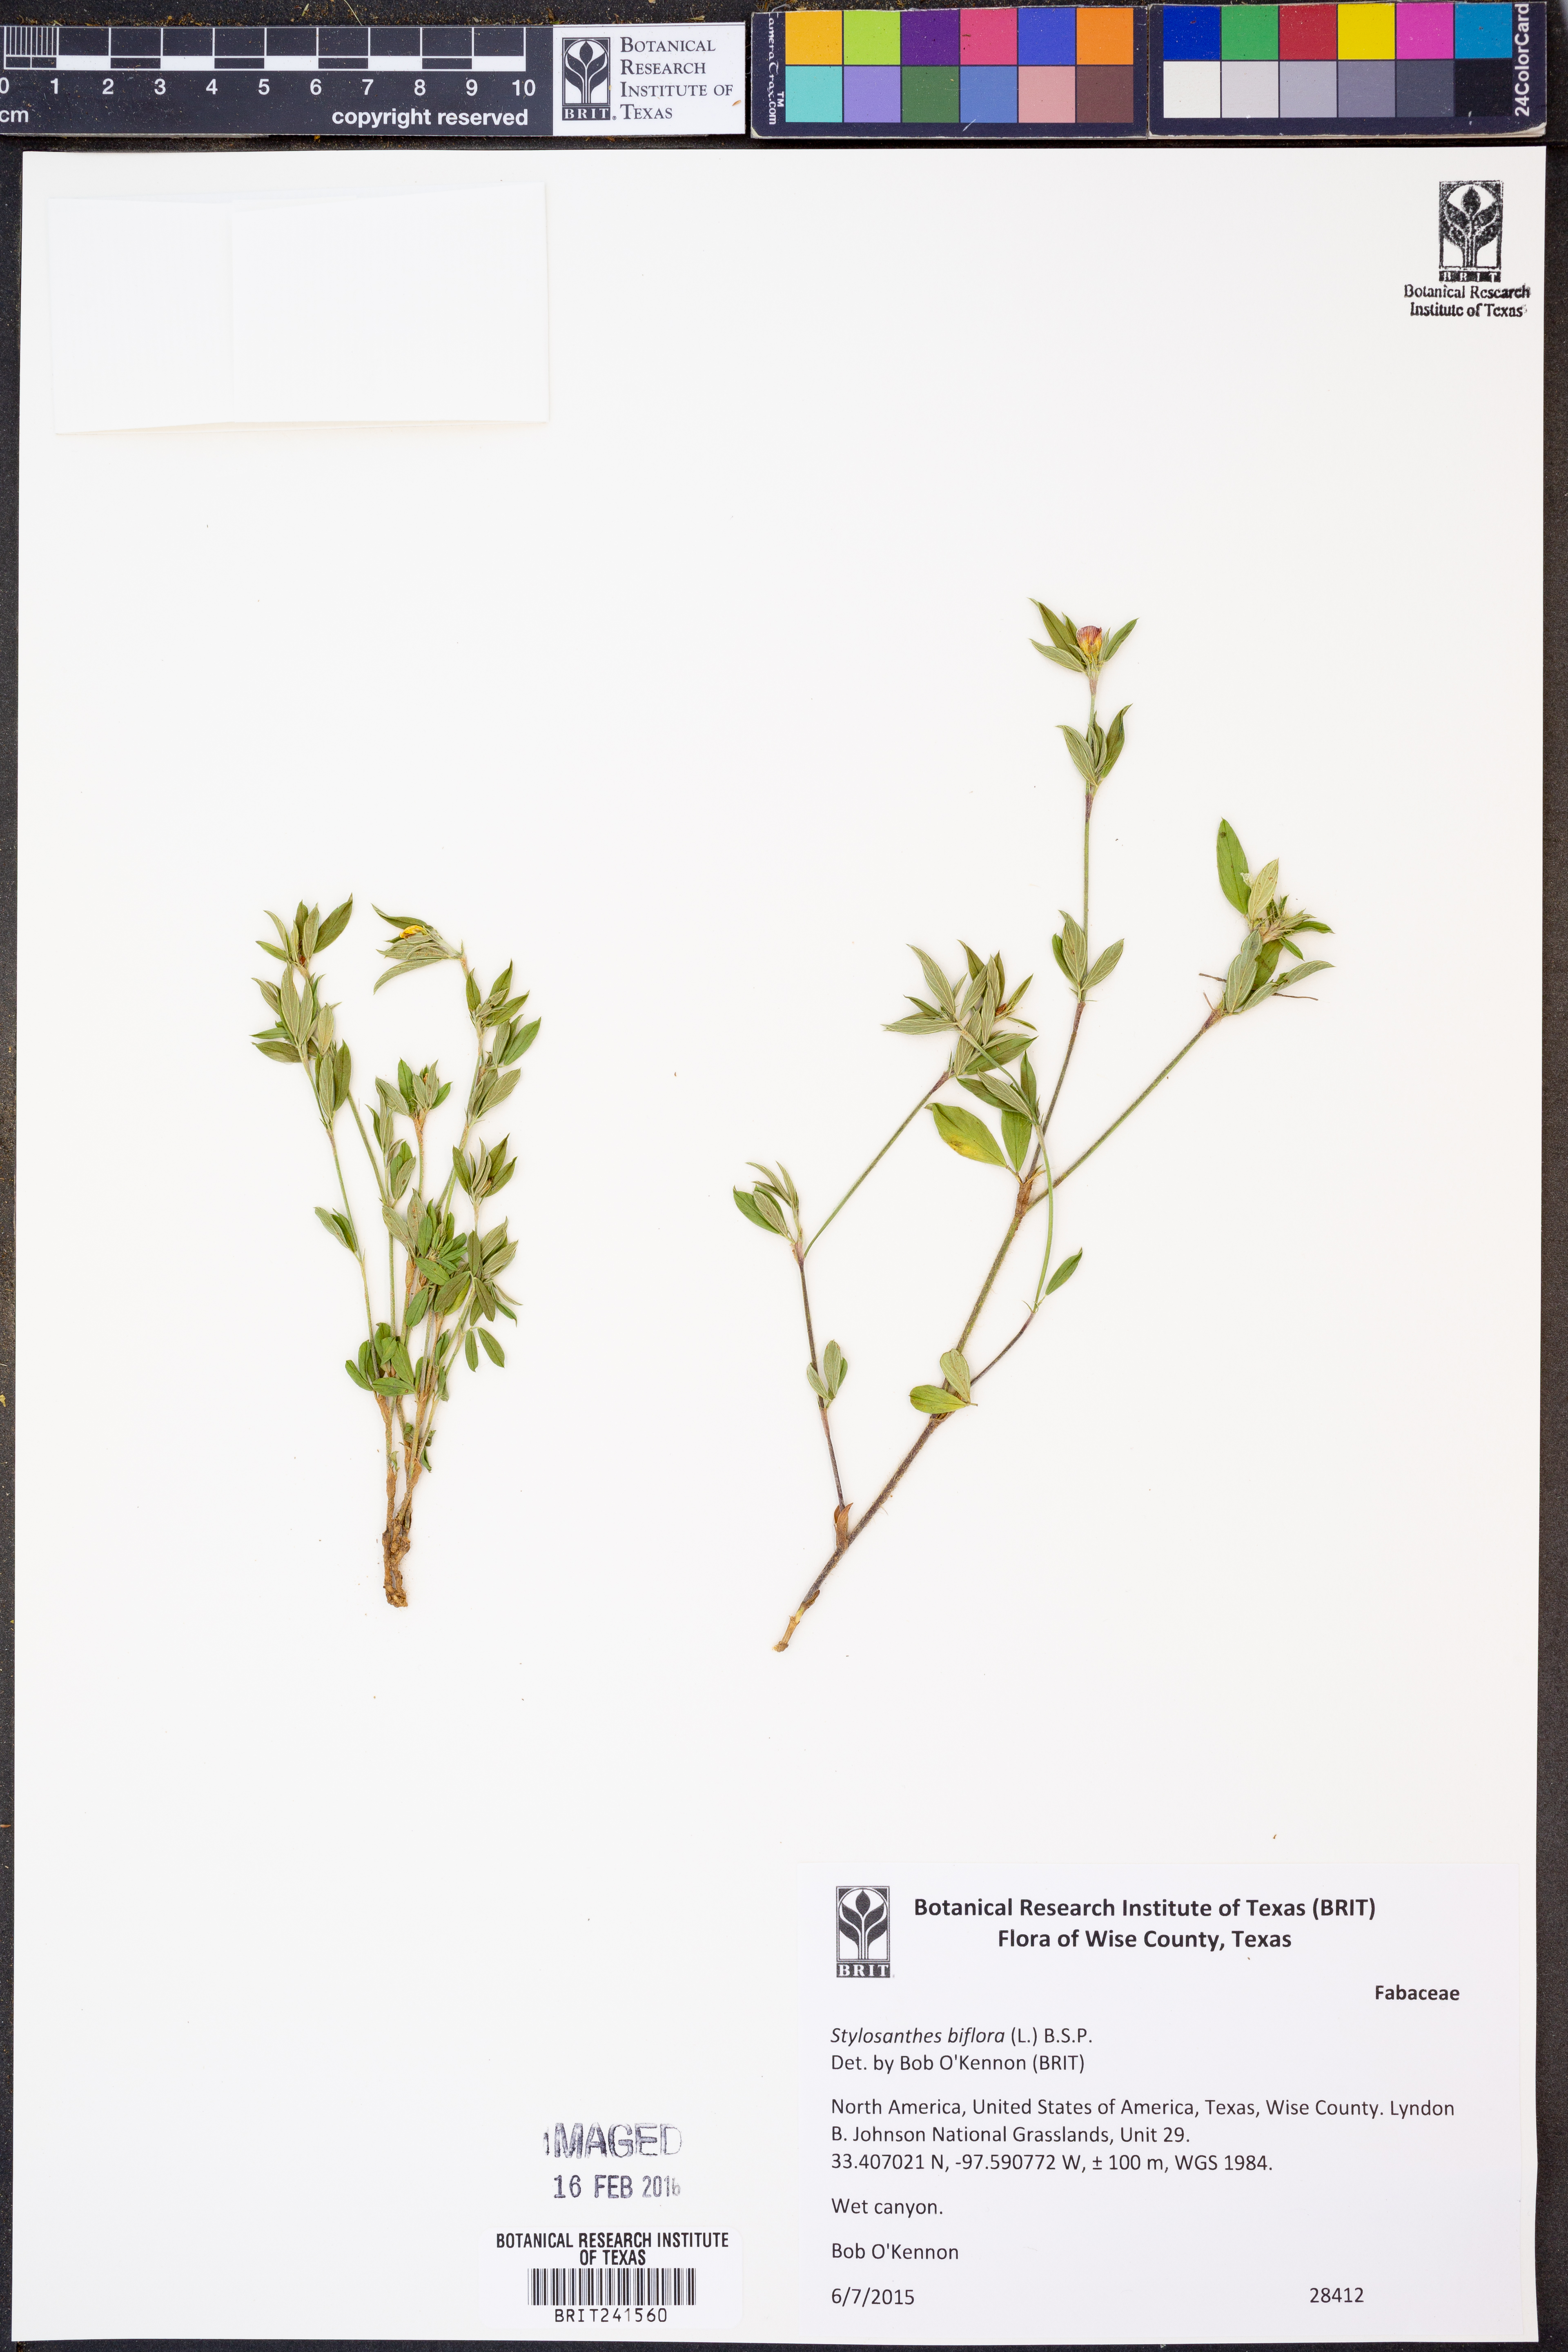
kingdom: Plantae
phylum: Tracheophyta
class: Magnoliopsida
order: Fabales
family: Fabaceae
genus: Stylosanthes
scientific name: Stylosanthes biflora
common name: Two-flower pencil-flower
